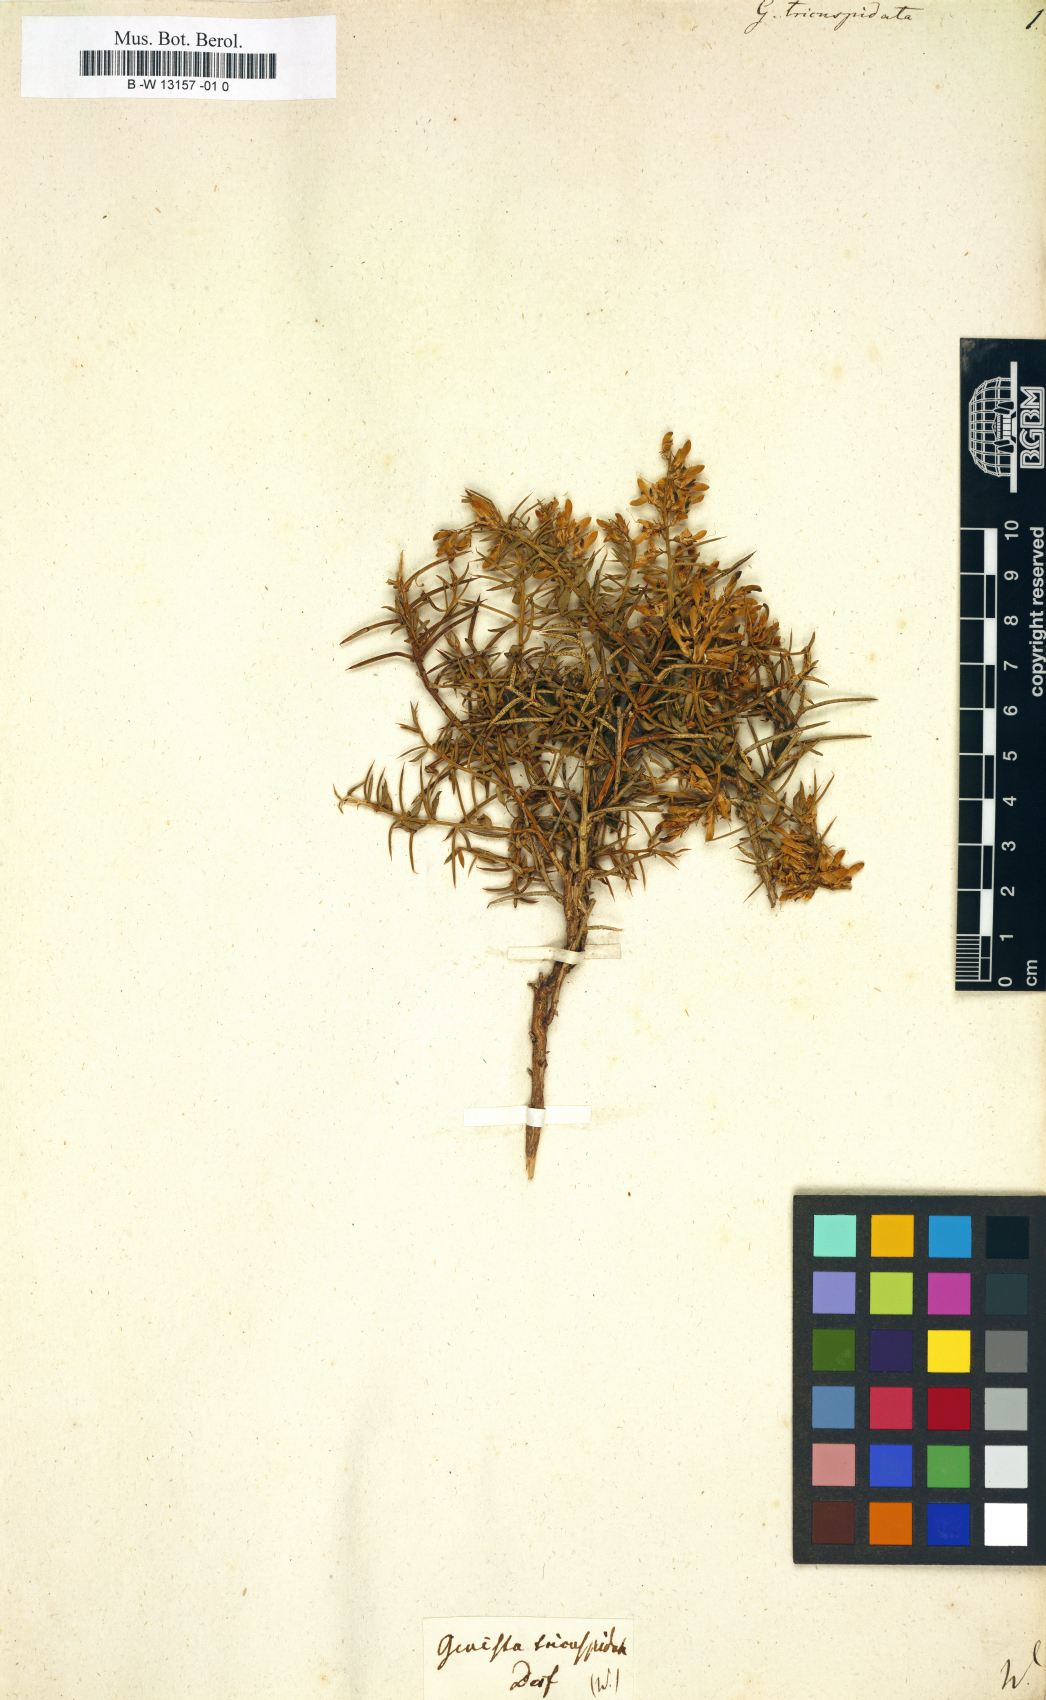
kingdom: Plantae
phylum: Tracheophyta
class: Magnoliopsida
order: Fabales
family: Fabaceae
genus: Genista
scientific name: Genista tricuspidata
